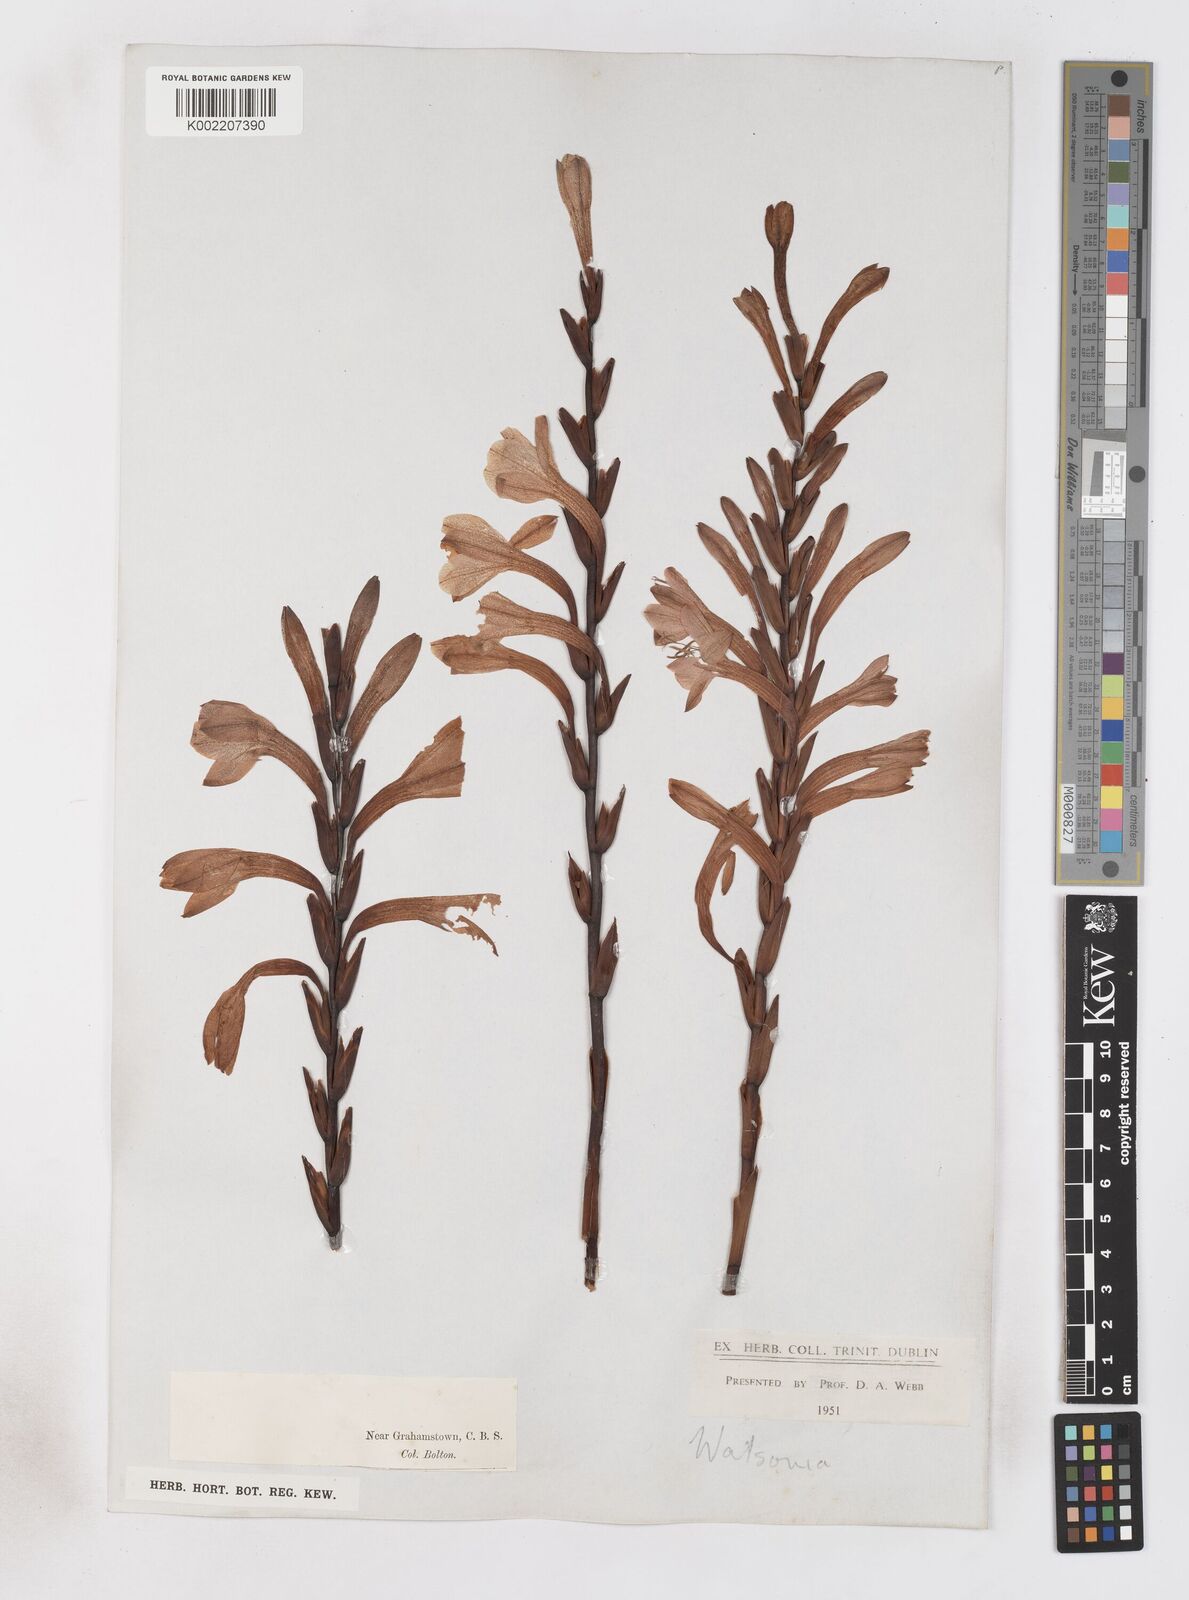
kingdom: Plantae
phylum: Tracheophyta
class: Liliopsida
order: Asparagales
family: Iridaceae
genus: Watsonia
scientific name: Watsonia pillansii
